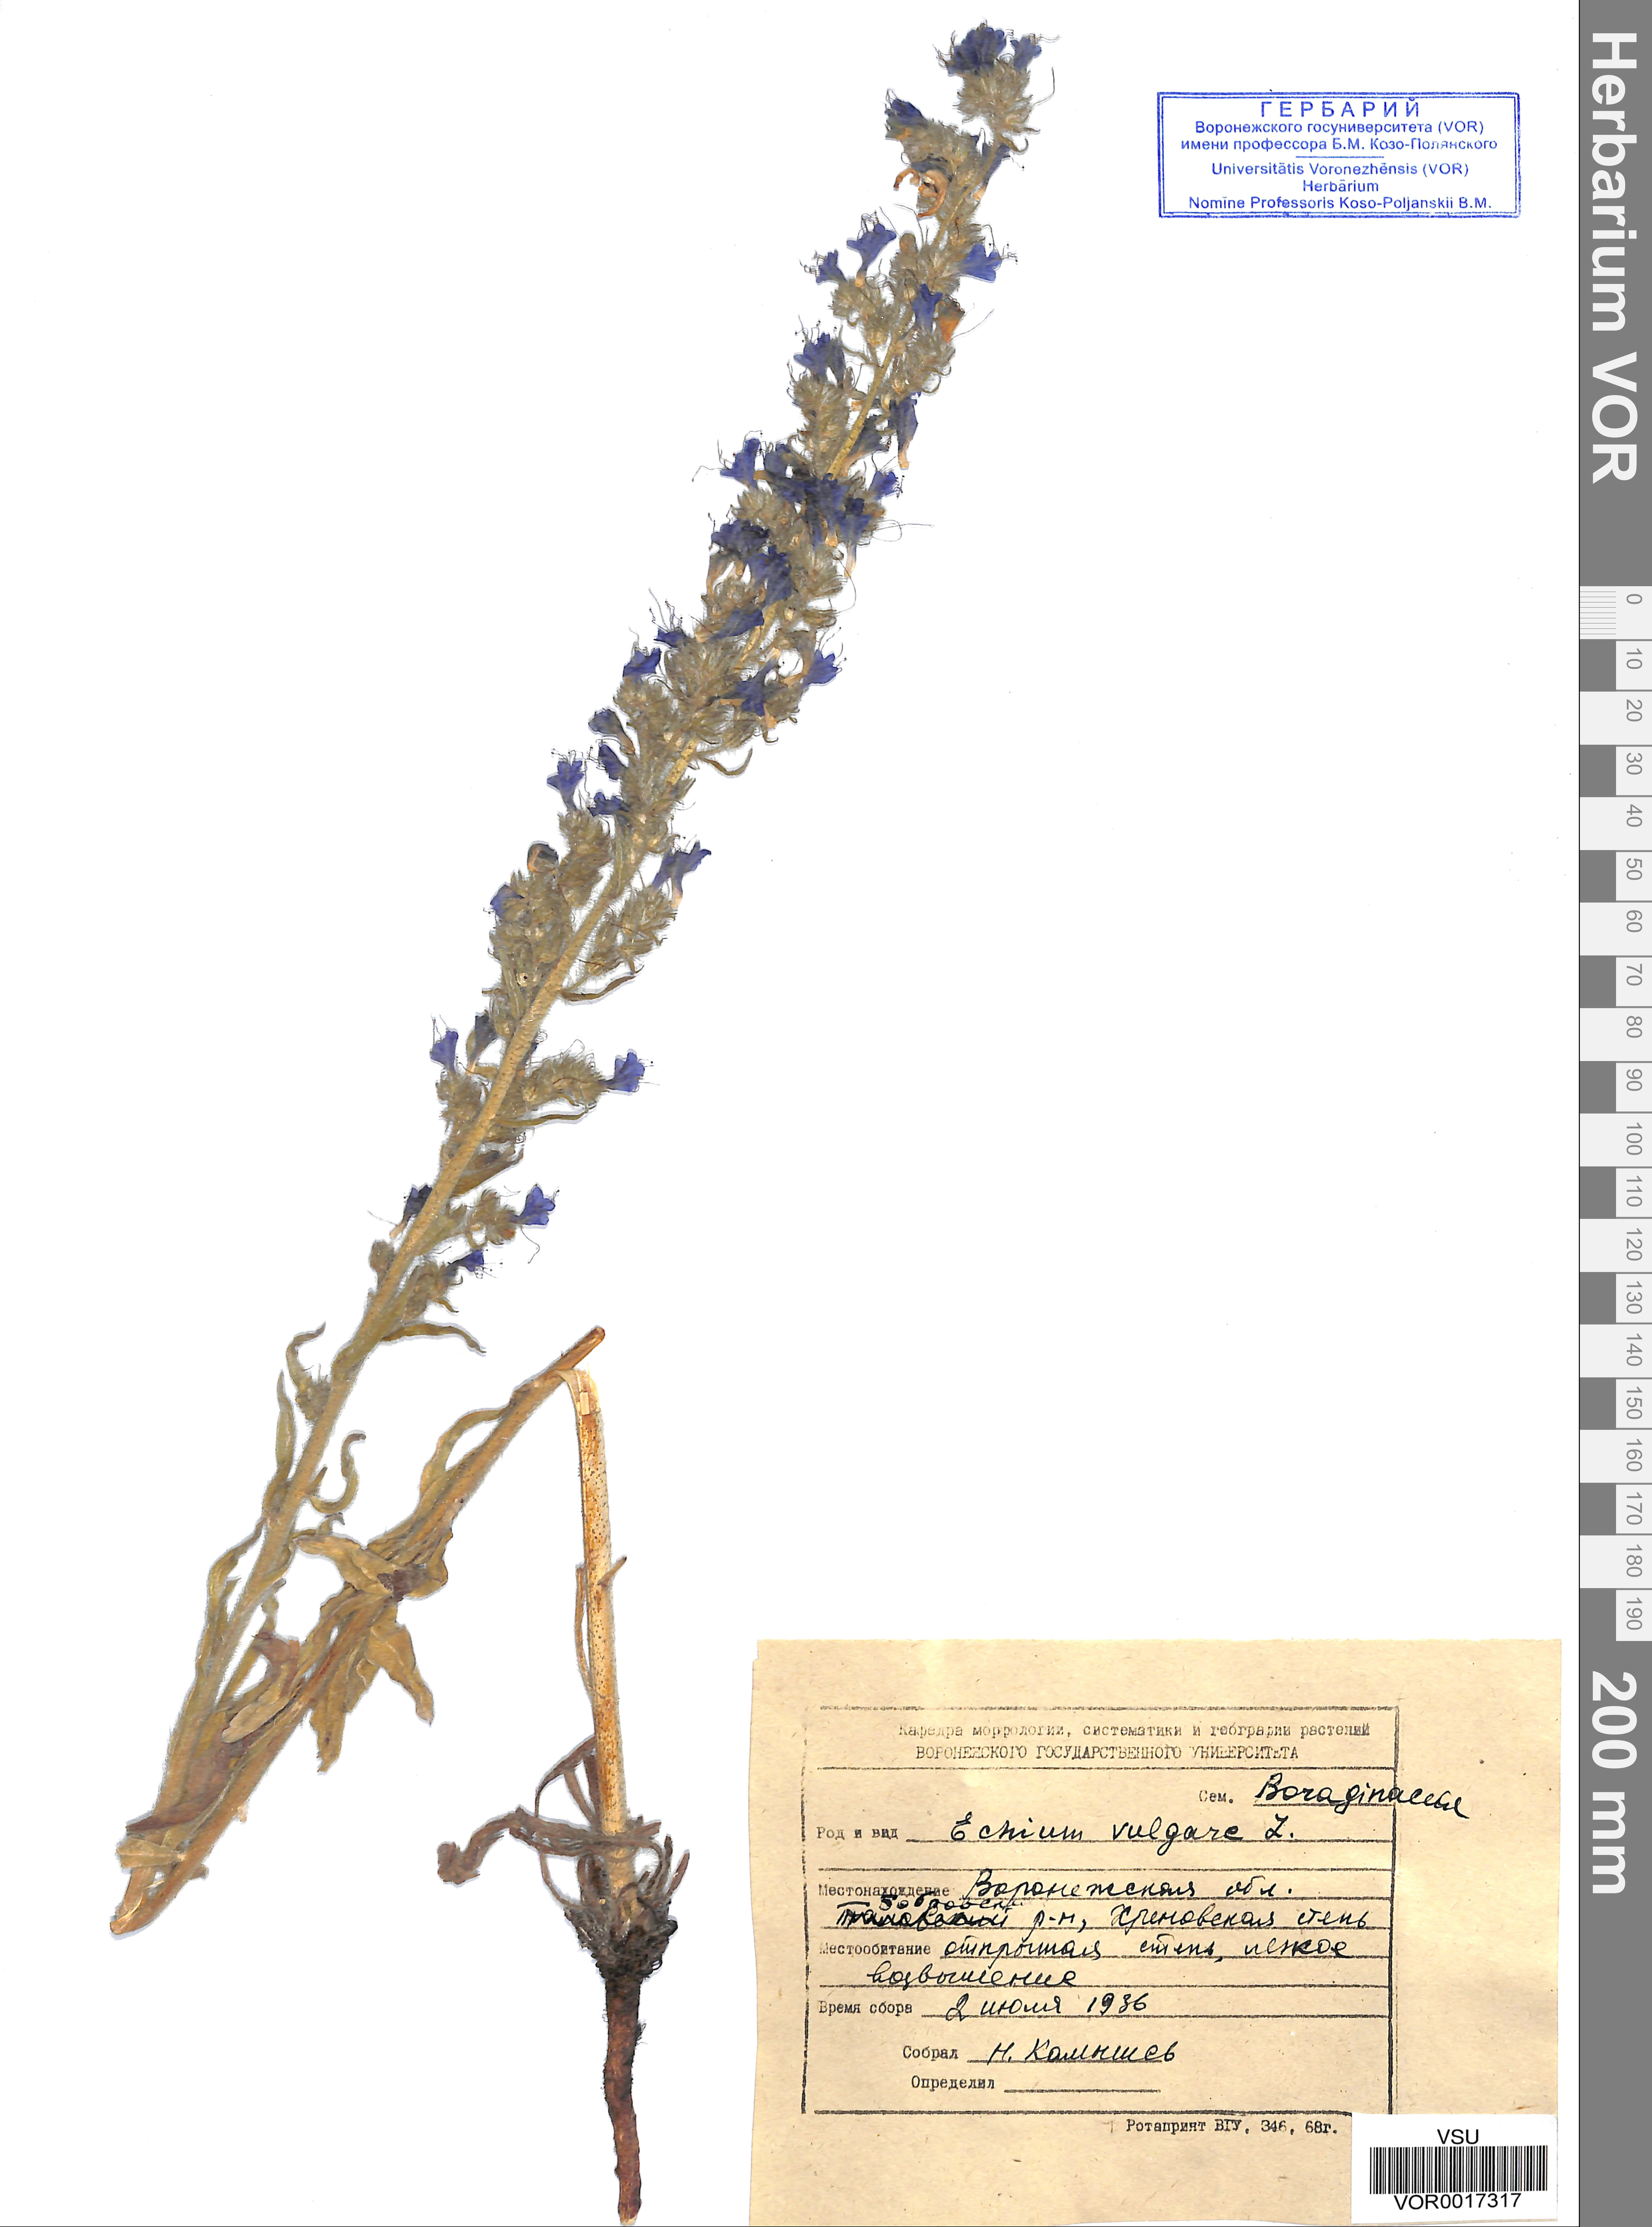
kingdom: Plantae
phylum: Tracheophyta
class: Magnoliopsida
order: Boraginales
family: Boraginaceae
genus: Echium
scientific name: Echium vulgare
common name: Common viper's bugloss
